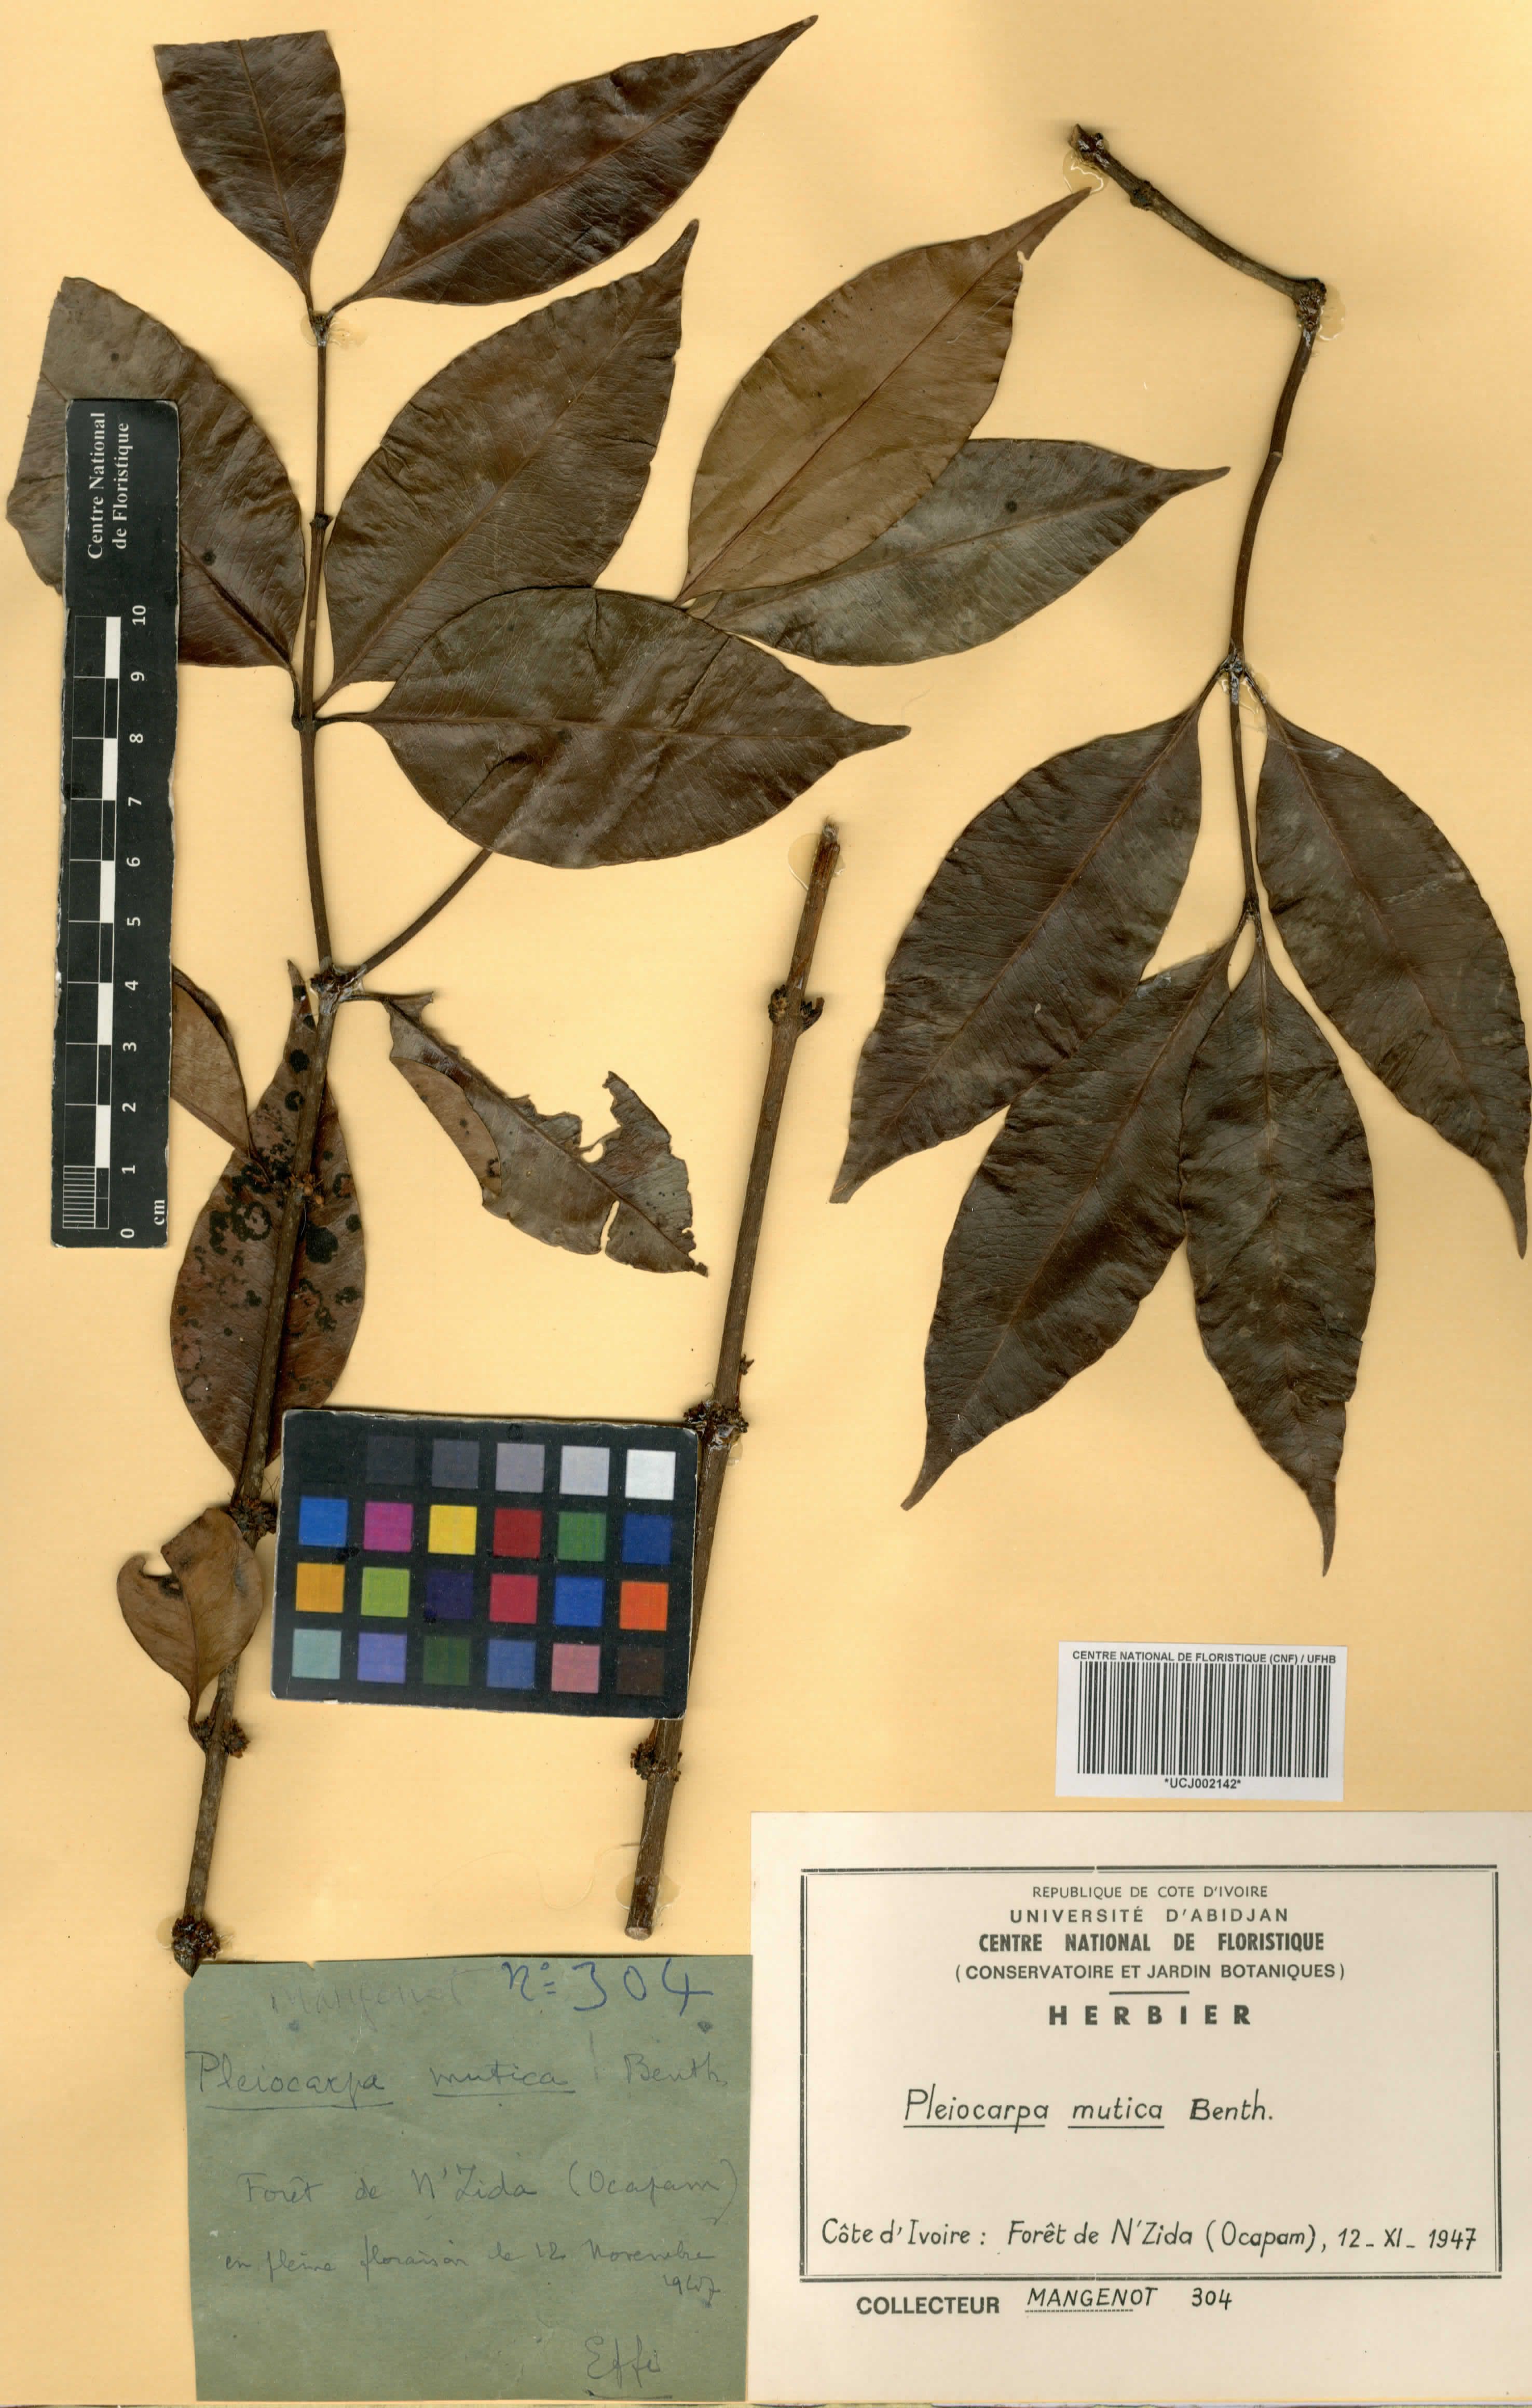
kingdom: Plantae
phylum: Tracheophyta
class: Magnoliopsida
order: Gentianales
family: Apocynaceae
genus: Pleiocarpa
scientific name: Pleiocarpa mutica
